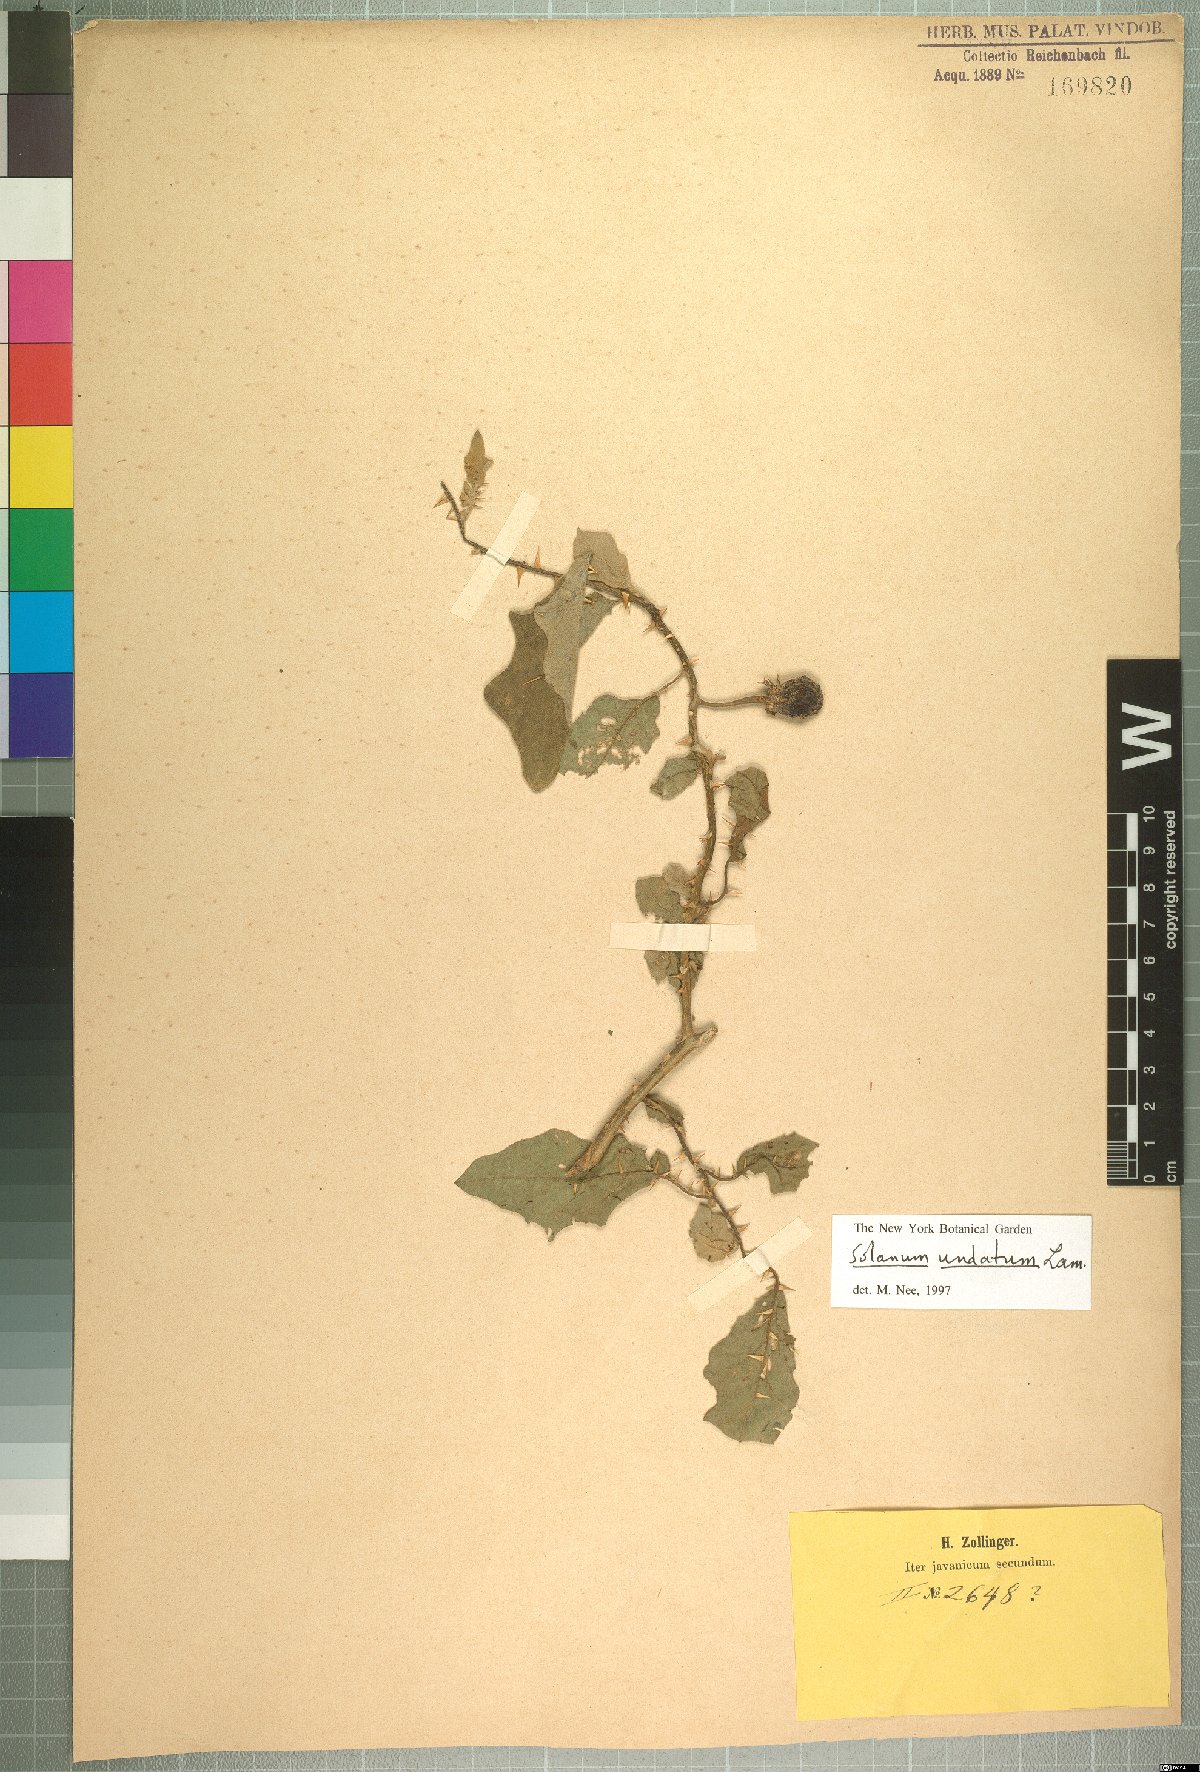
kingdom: Plantae
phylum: Tracheophyta
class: Magnoliopsida
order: Solanales
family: Solanaceae
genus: Solanum
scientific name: Solanum insanum
